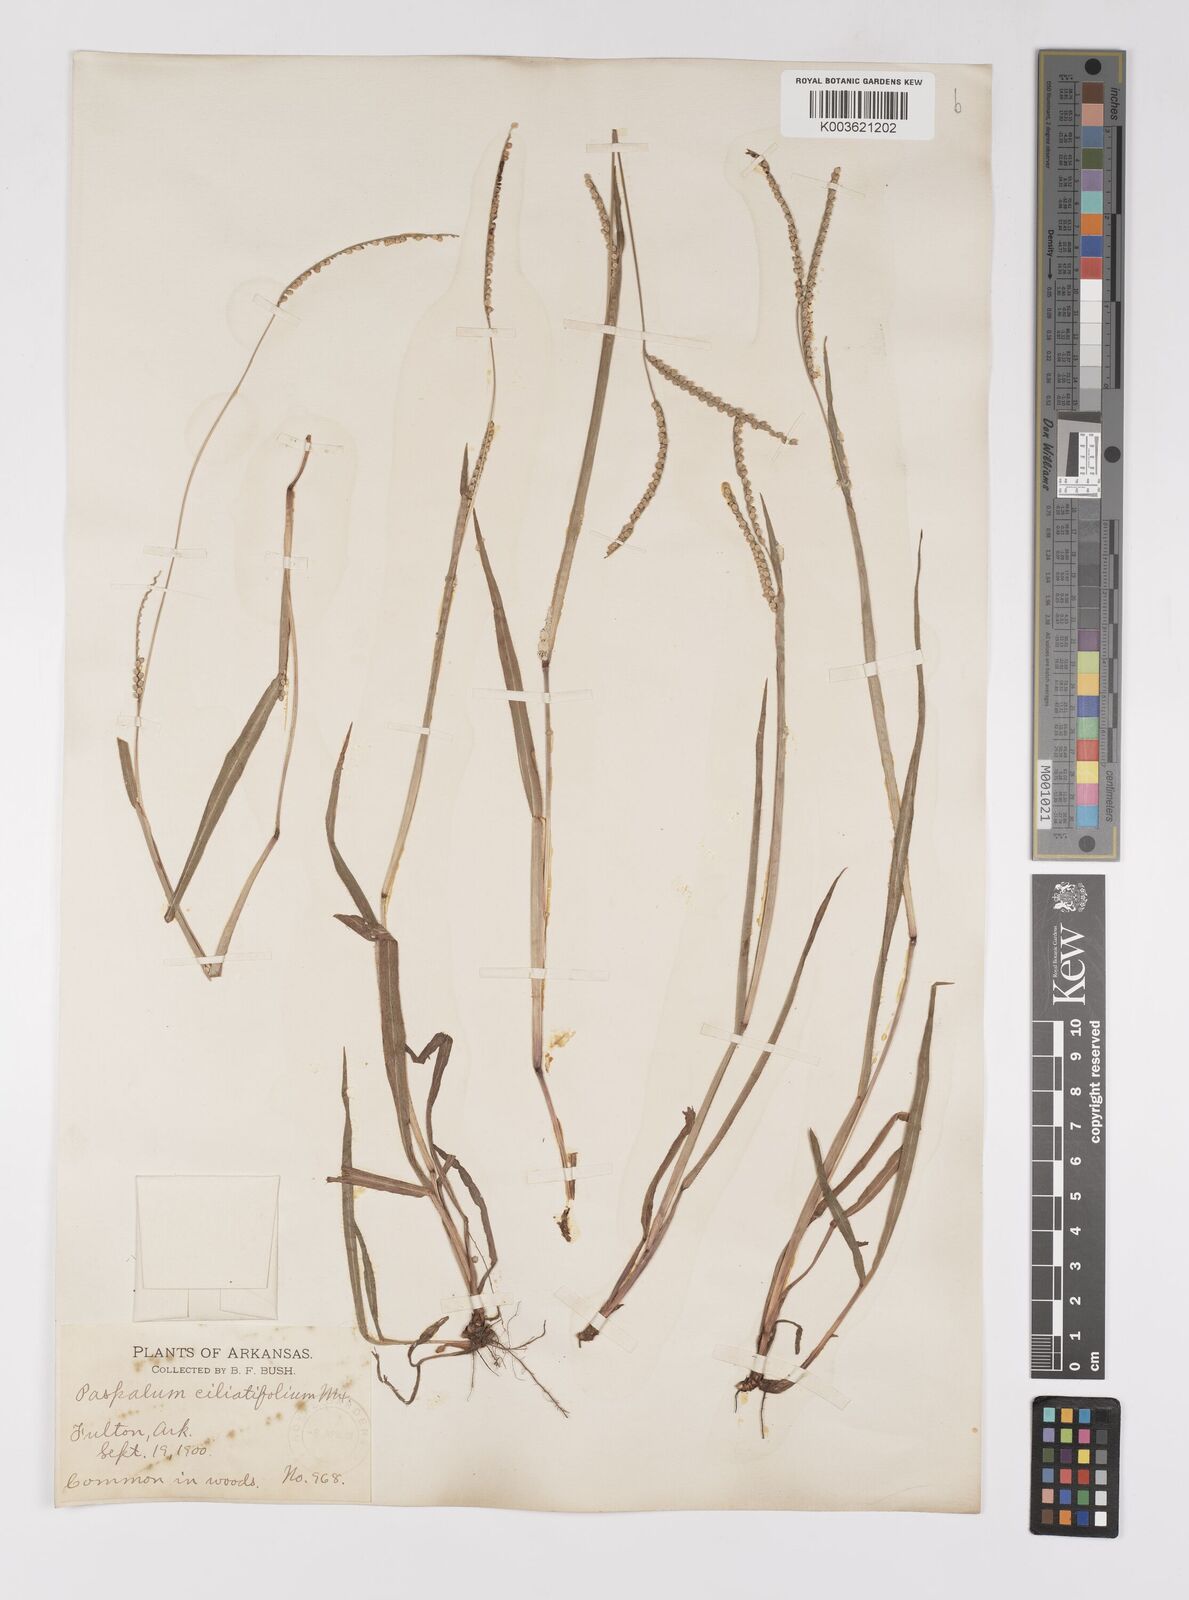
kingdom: Plantae
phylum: Tracheophyta
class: Liliopsida
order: Poales
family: Poaceae
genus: Paspalum
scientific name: Paspalum setaceum
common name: Slender paspalum
